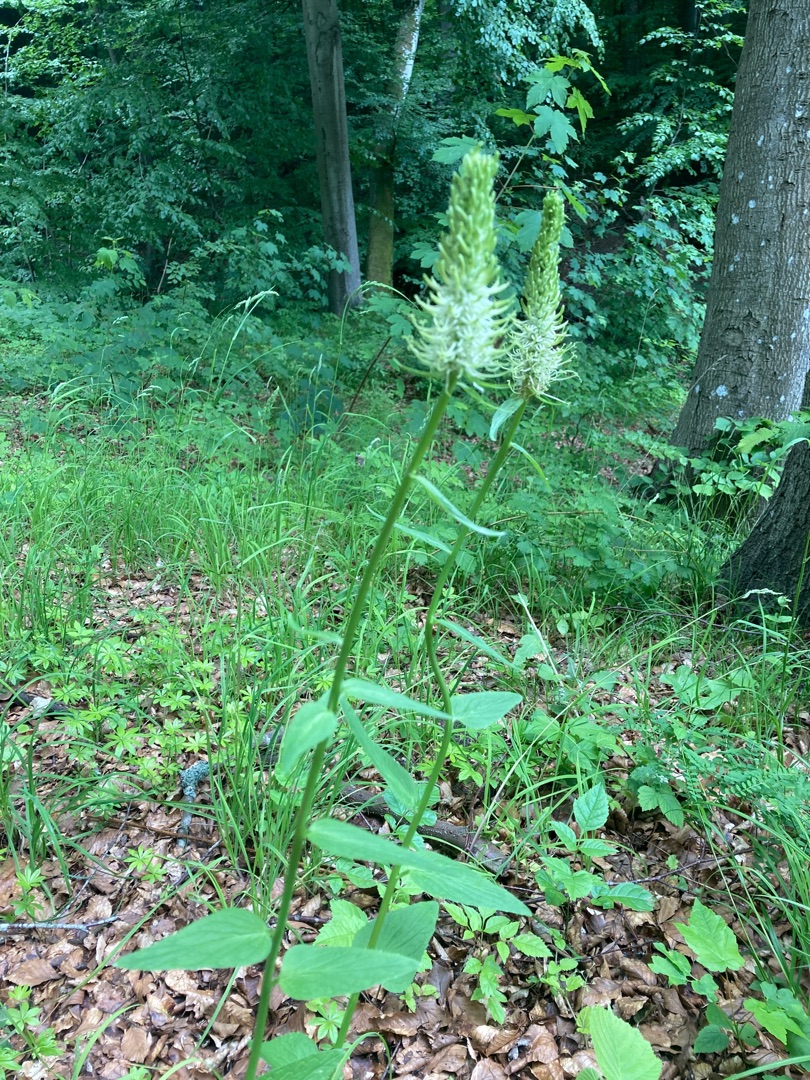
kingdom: Plantae
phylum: Tracheophyta
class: Magnoliopsida
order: Asterales
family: Campanulaceae
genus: Phyteuma
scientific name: Phyteuma spicatum
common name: Aks-rapunsel
